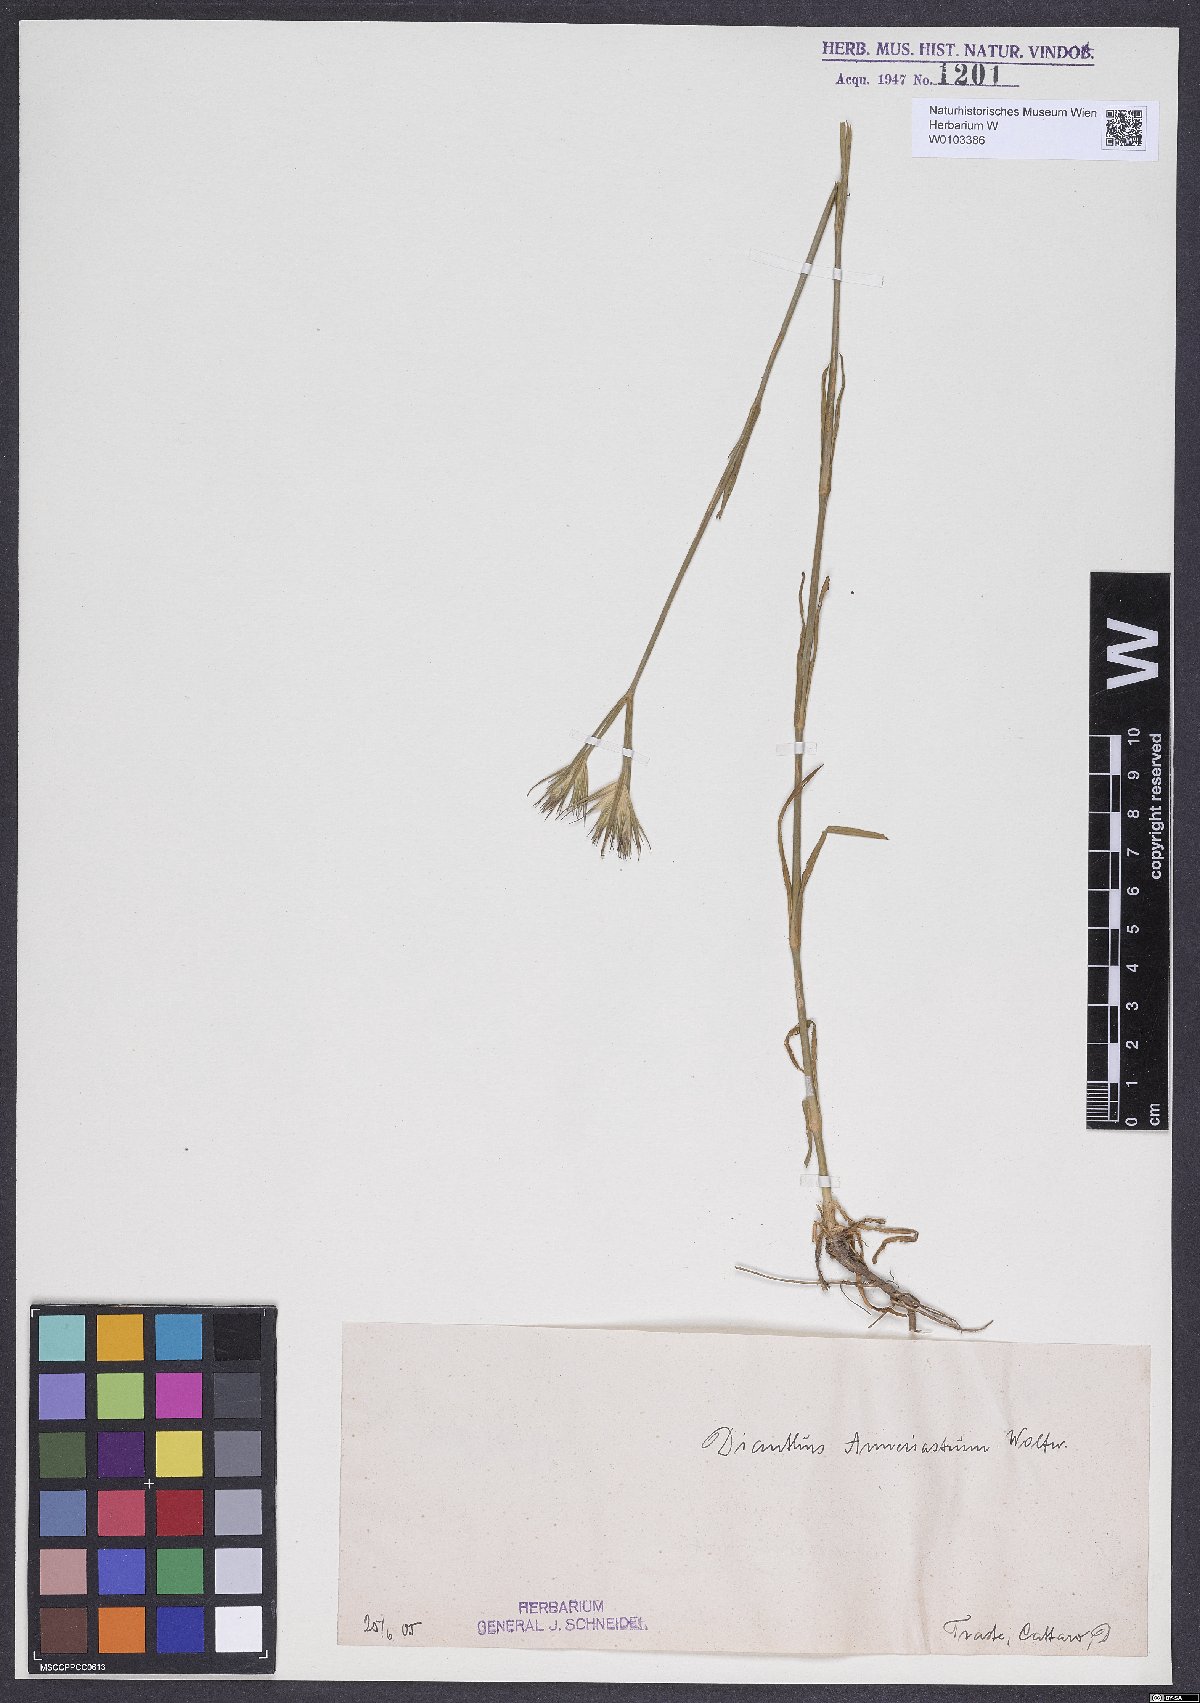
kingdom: Plantae
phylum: Tracheophyta
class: Magnoliopsida
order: Caryophyllales
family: Caryophyllaceae
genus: Dianthus
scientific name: Dianthus corymbosus
